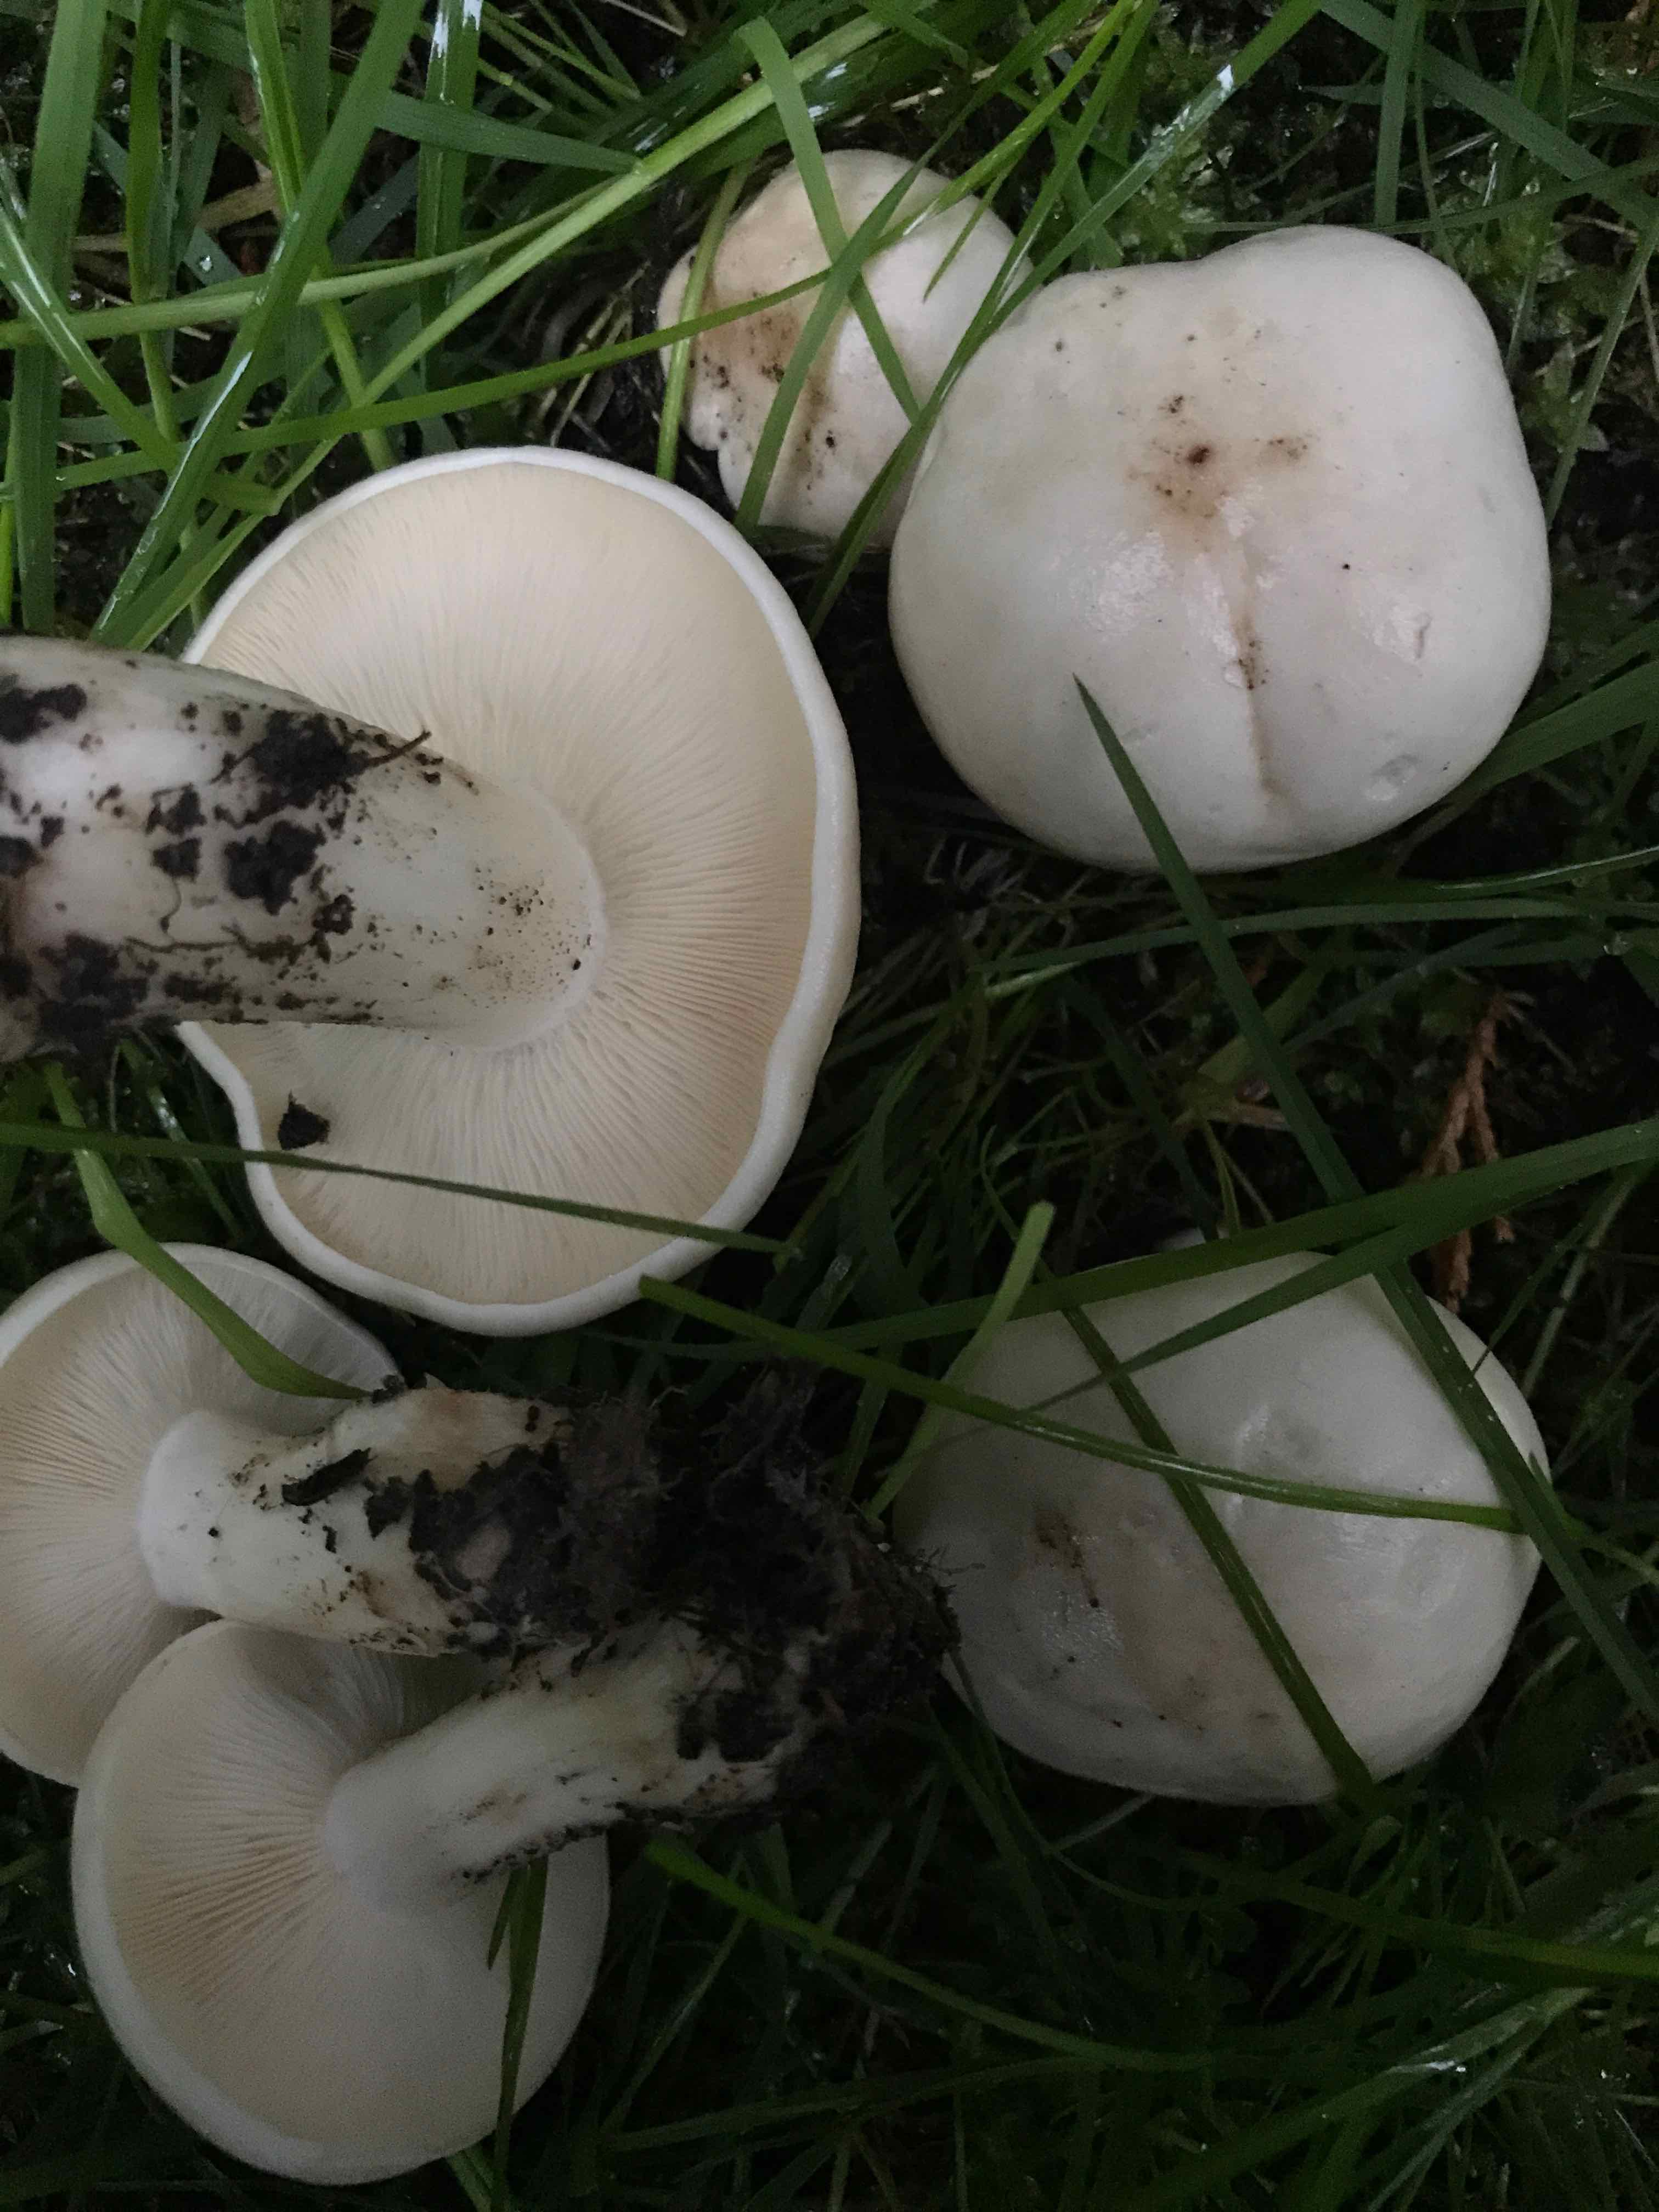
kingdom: Fungi
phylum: Basidiomycota
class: Agaricomycetes
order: Agaricales
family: Lyophyllaceae
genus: Calocybe
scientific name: Calocybe gambosa
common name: vårmusseron
